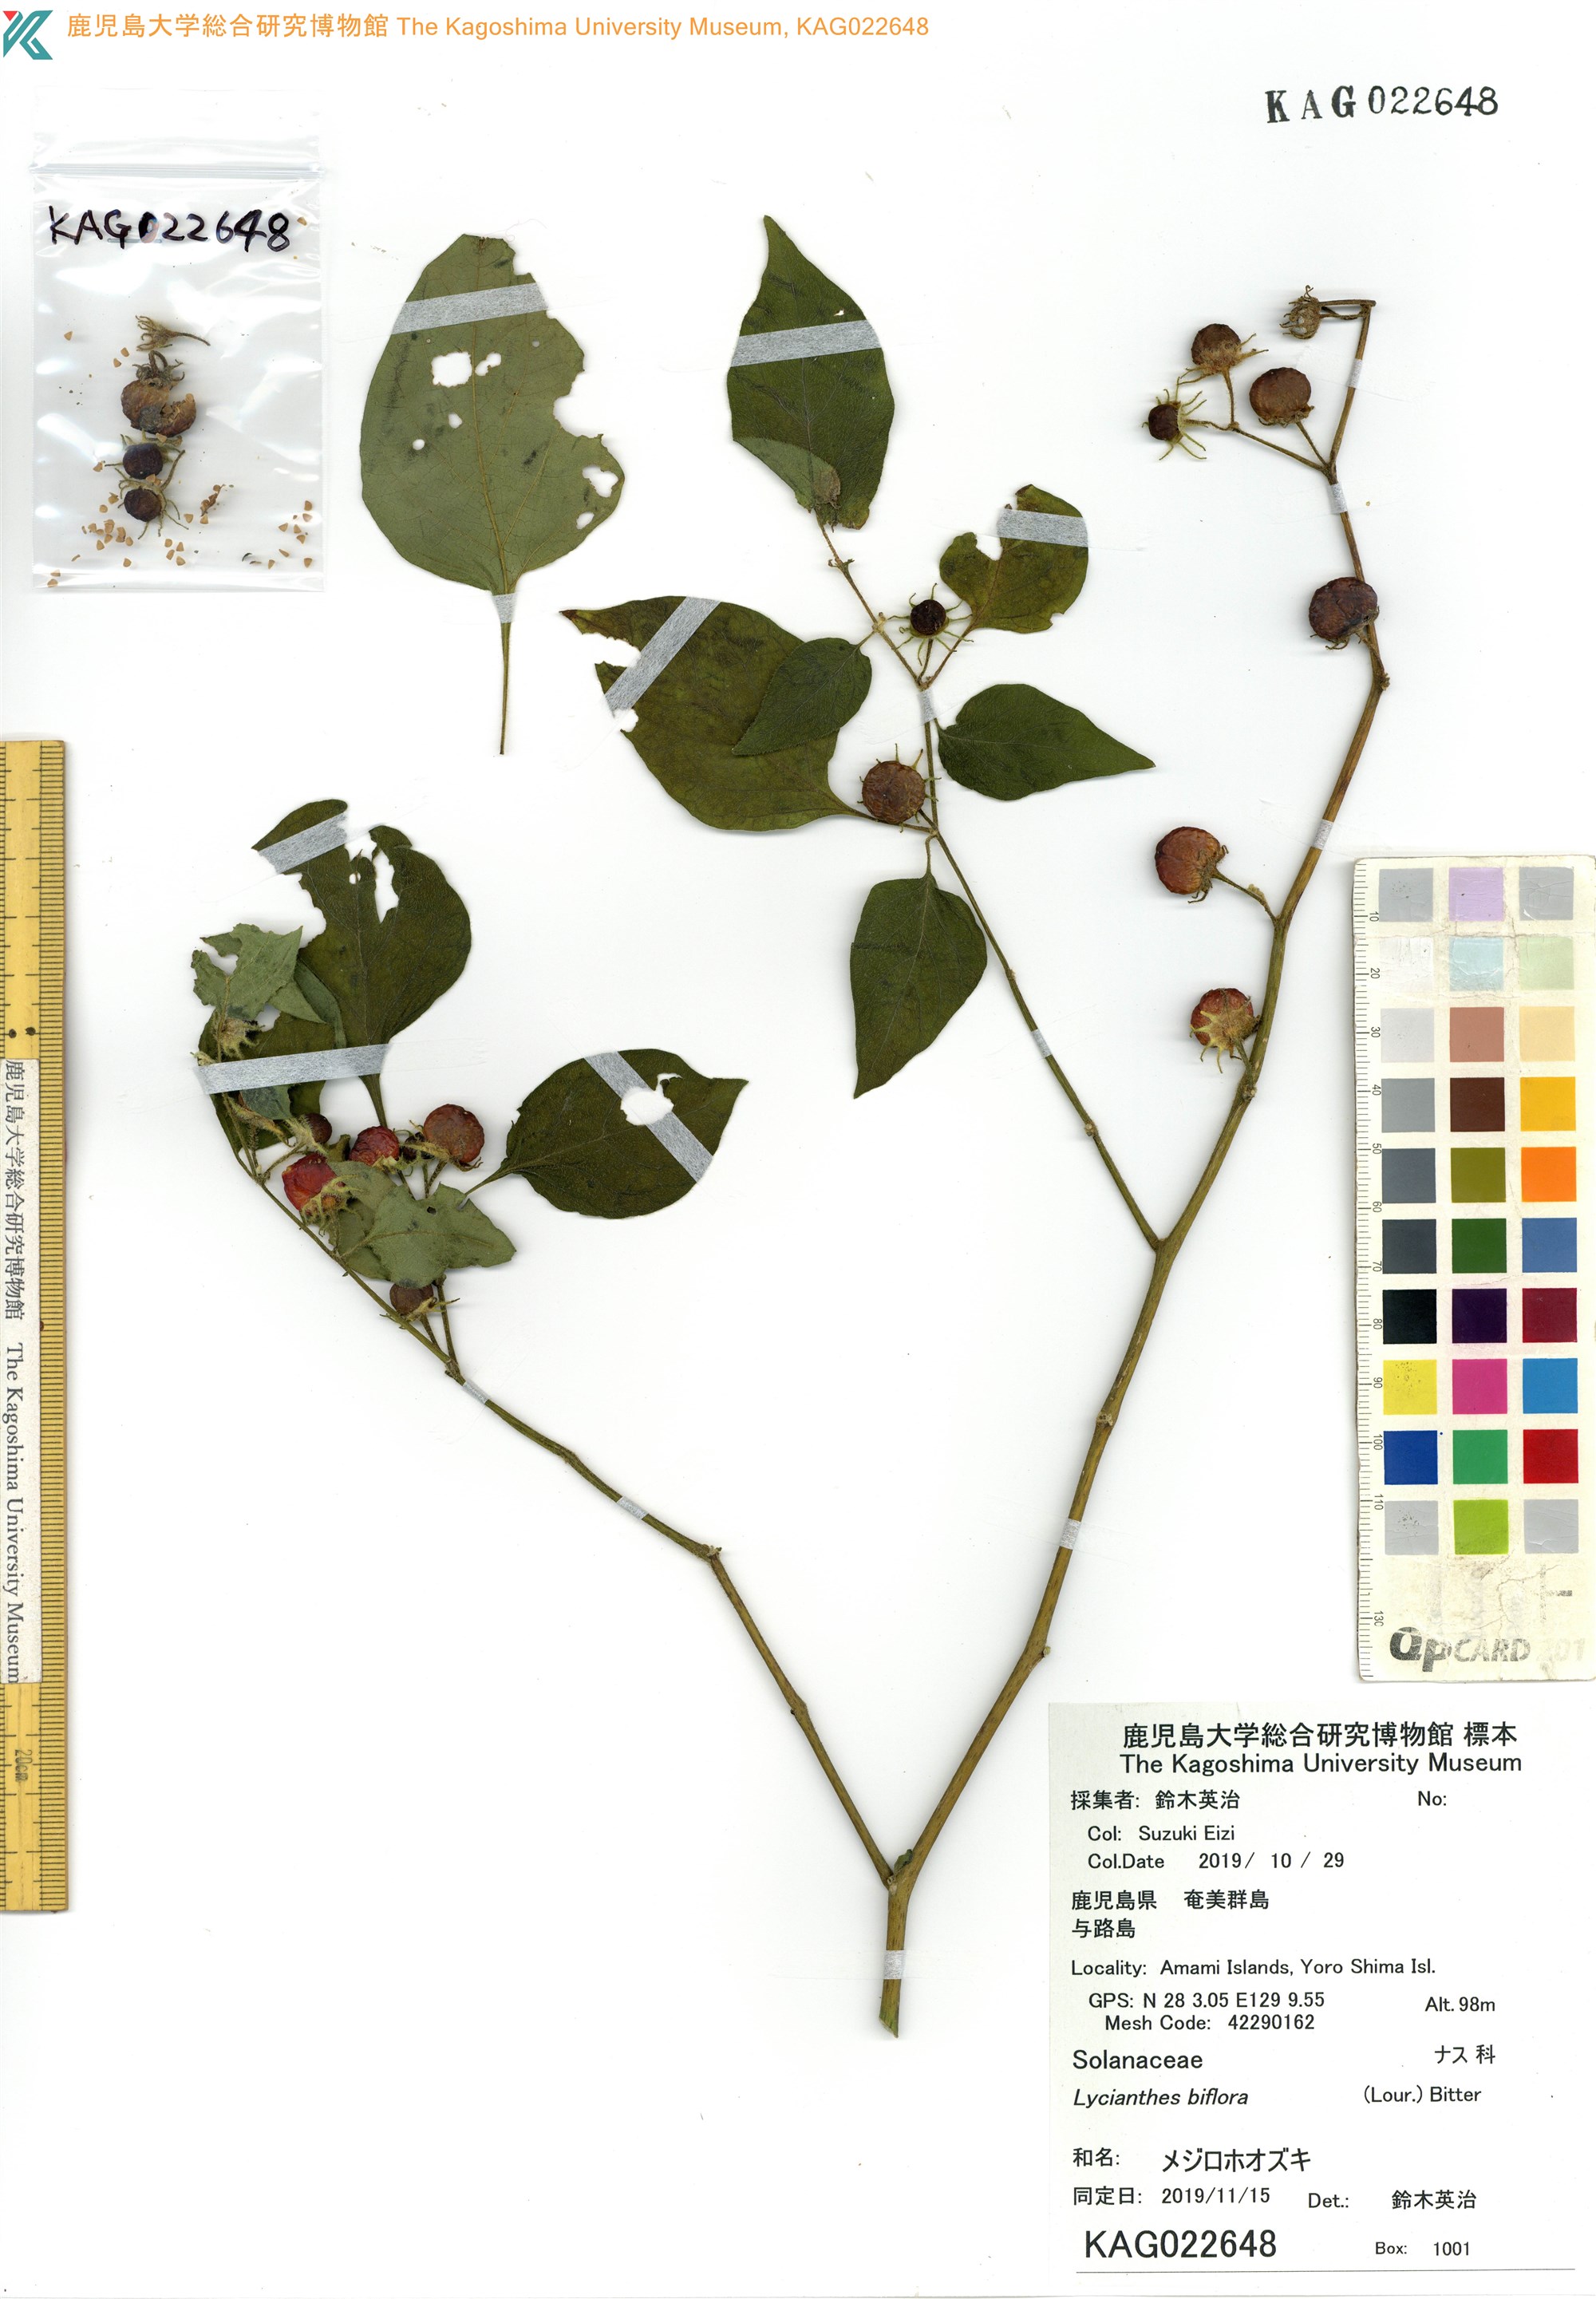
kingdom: Plantae
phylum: Tracheophyta
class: Magnoliopsida
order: Solanales
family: Solanaceae
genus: Lycianthes
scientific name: Lycianthes biflora
